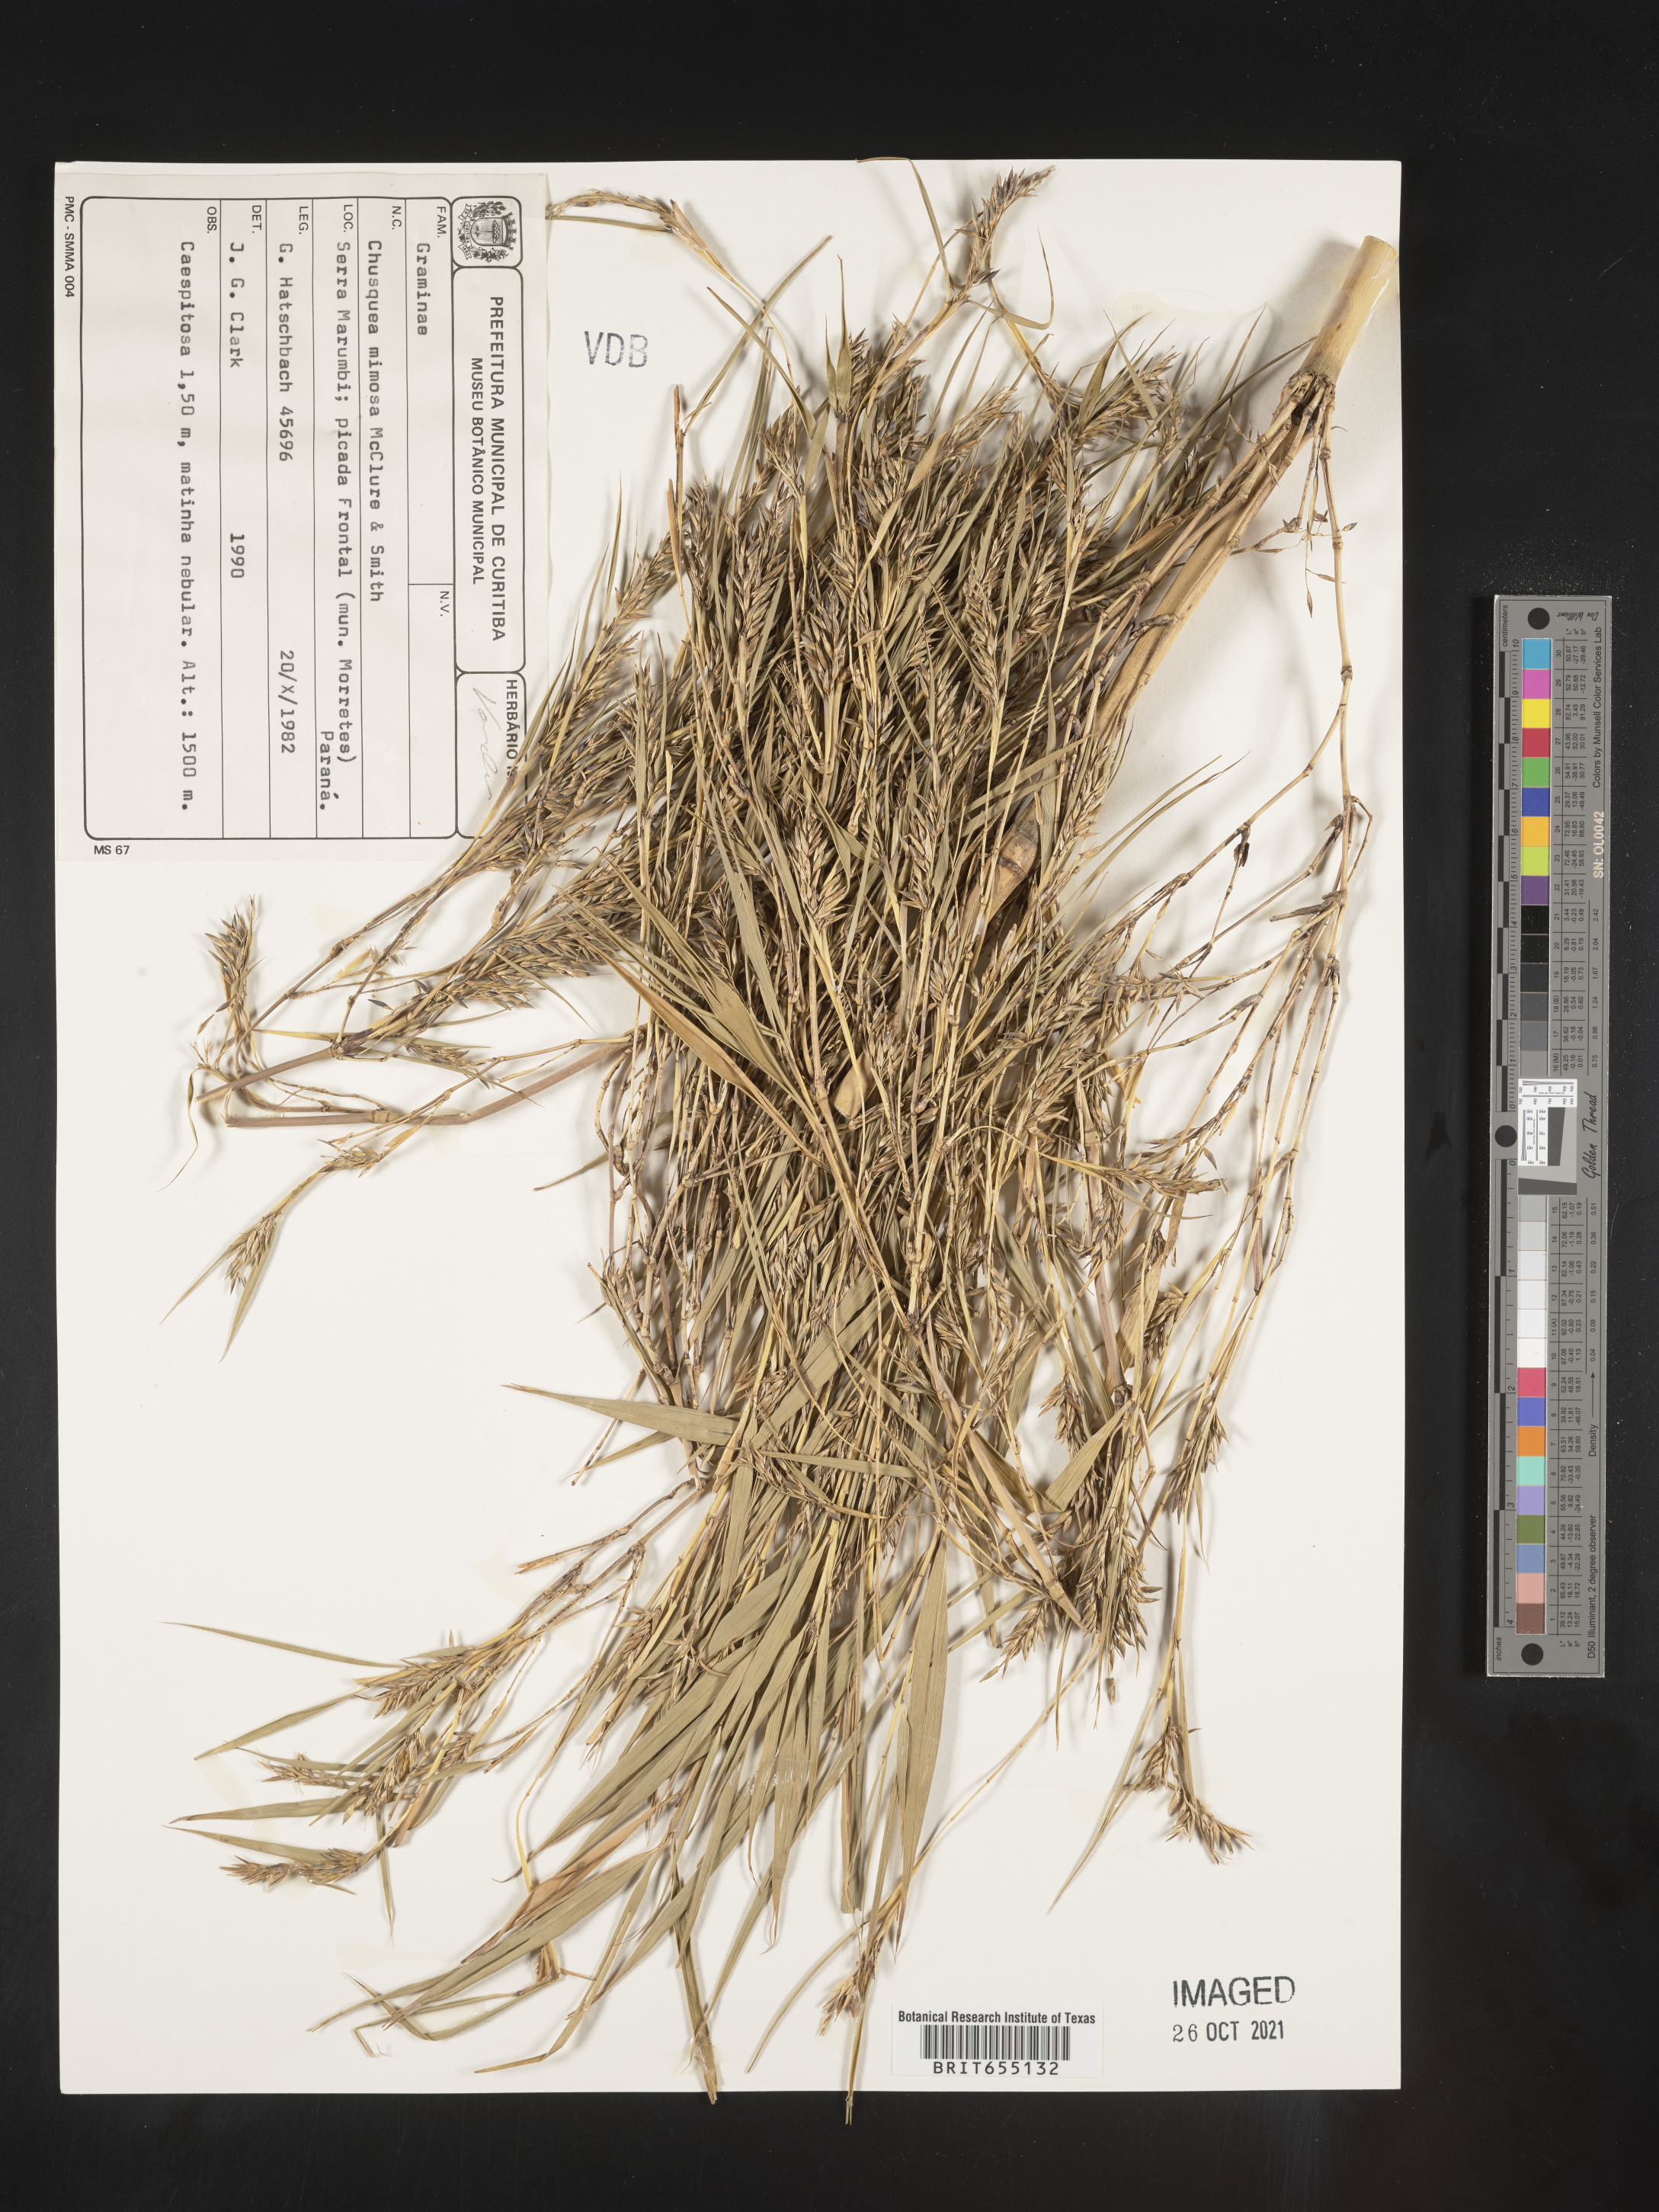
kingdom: Plantae
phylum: Tracheophyta
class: Liliopsida
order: Poales
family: Poaceae
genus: Chusquea
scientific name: Chusquea
